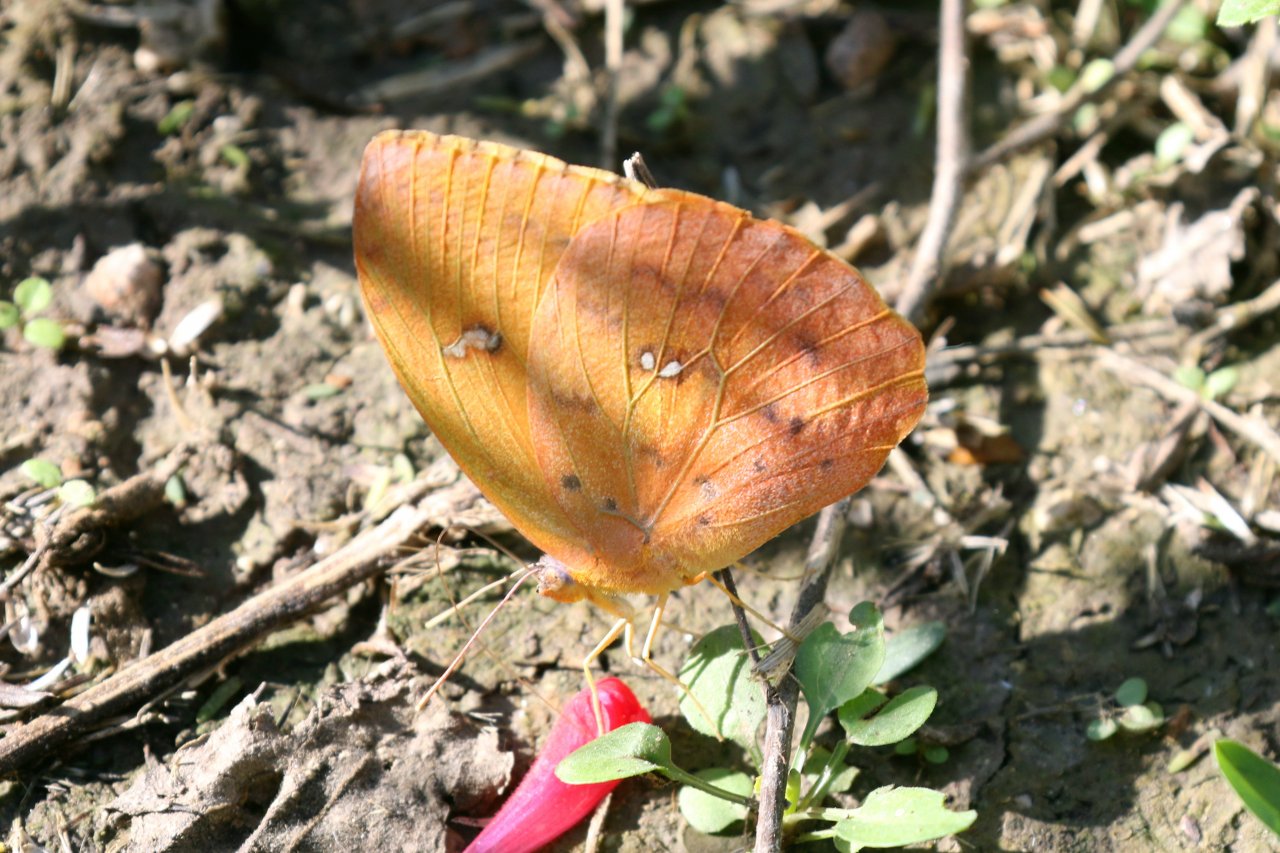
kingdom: Animalia
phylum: Arthropoda
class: Insecta
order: Lepidoptera
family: Pieridae
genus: Phoebis
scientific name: Phoebis philea
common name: Orange-barred Sulphur
